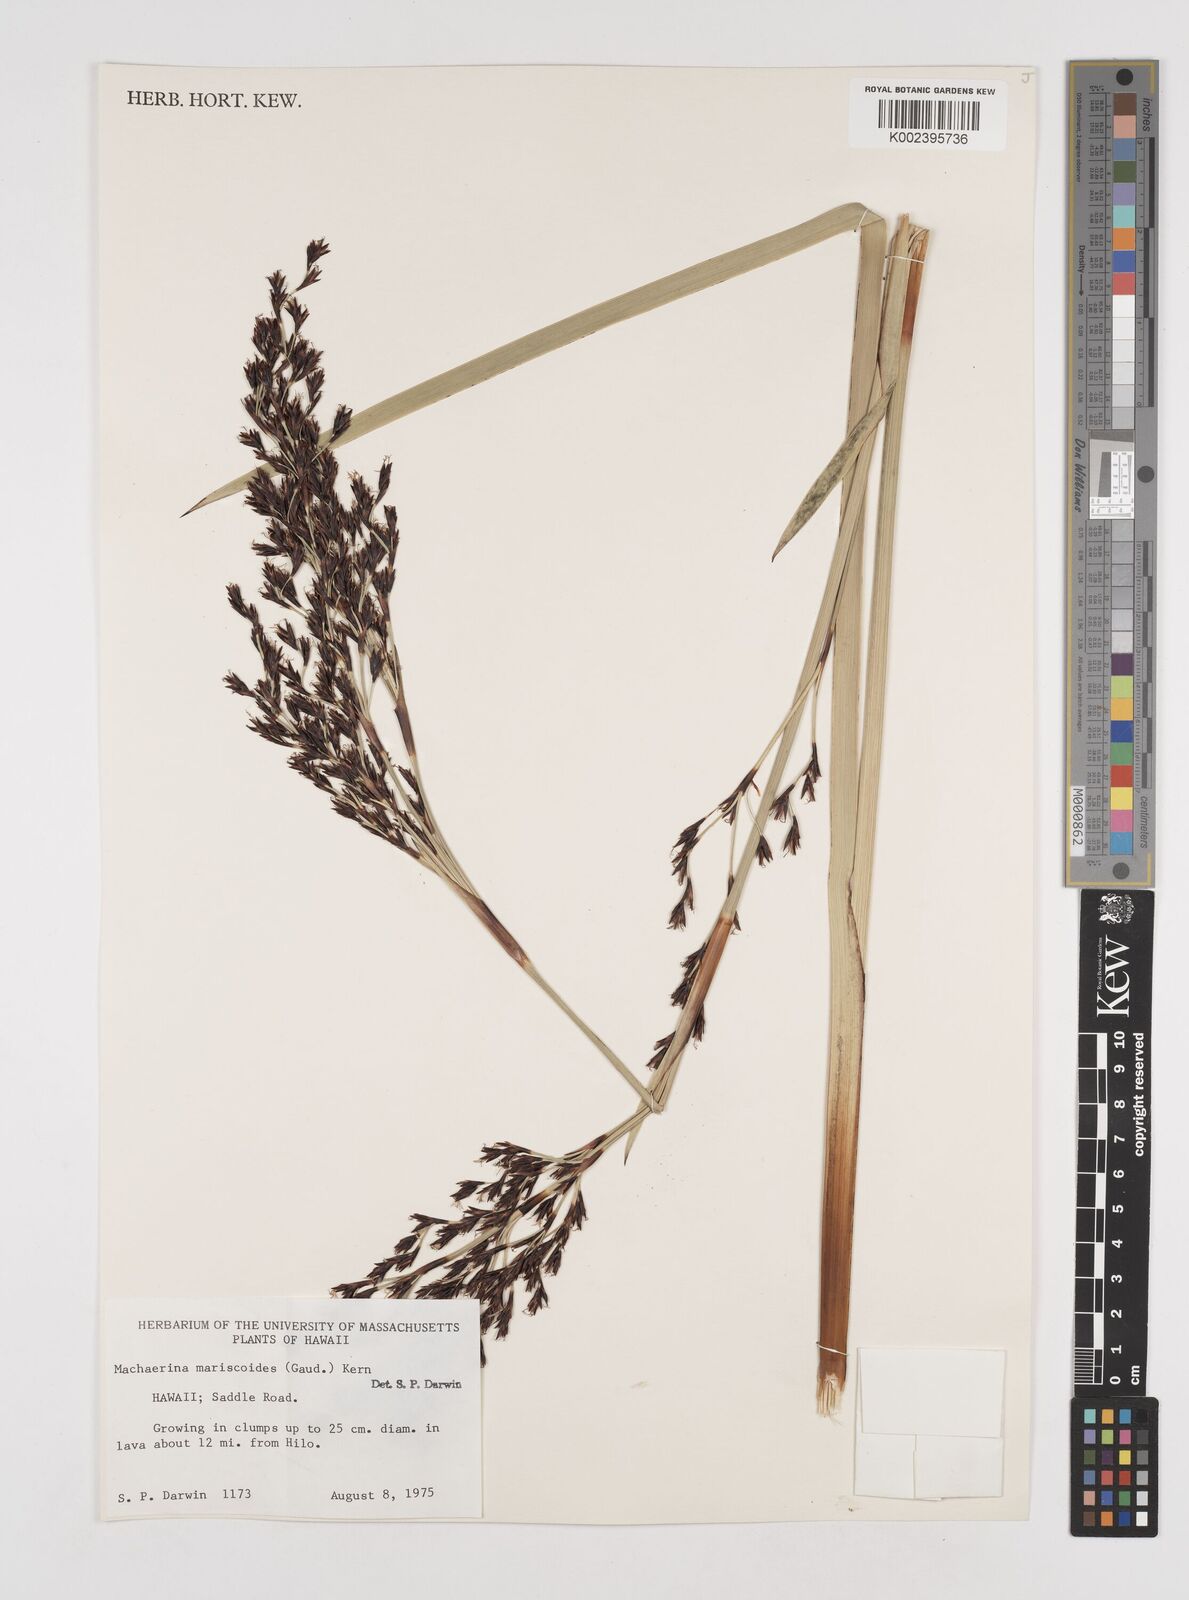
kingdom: Plantae
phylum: Tracheophyta
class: Liliopsida
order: Poales
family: Cyperaceae
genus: Machaerina
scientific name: Machaerina mariscoides
